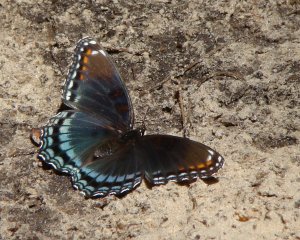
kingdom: Animalia
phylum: Arthropoda
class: Insecta
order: Lepidoptera
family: Nymphalidae
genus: Limenitis
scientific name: Limenitis astyanax
